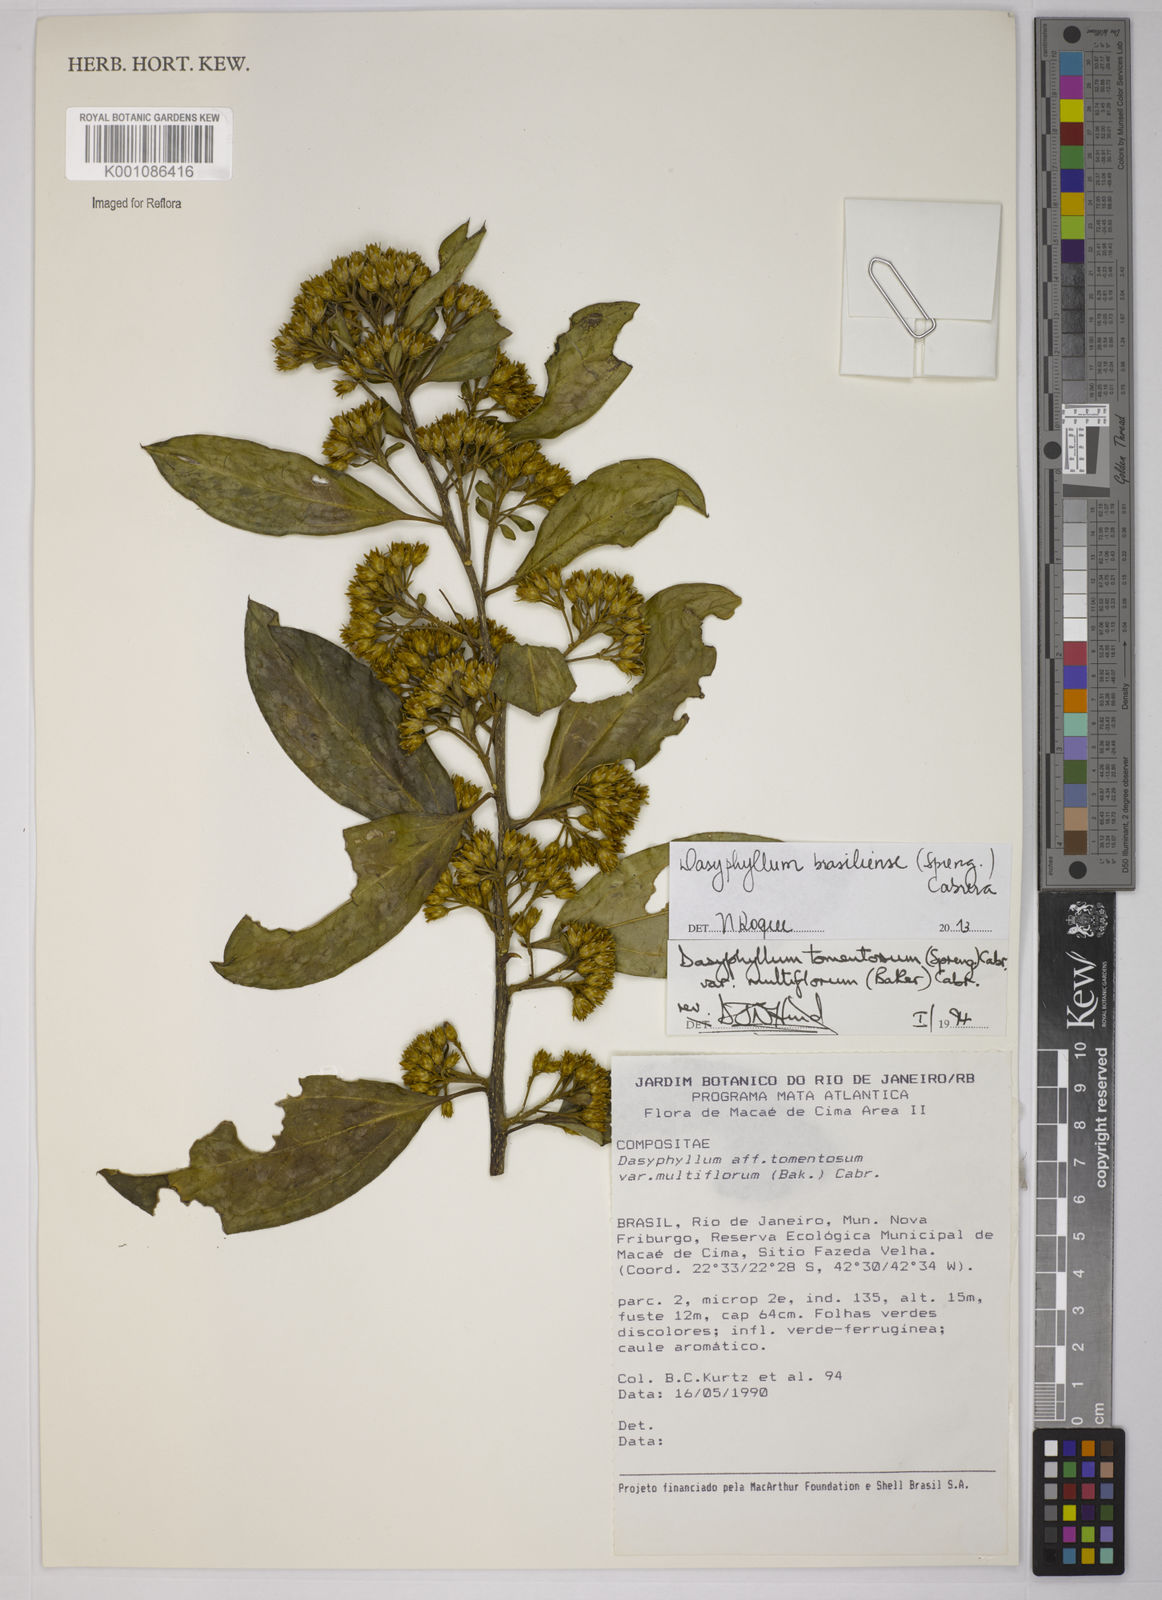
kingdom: Plantae
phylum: Tracheophyta
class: Magnoliopsida
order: Asterales
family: Asteraceae
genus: Dasyphyllum
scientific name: Dasyphyllum brasiliense
